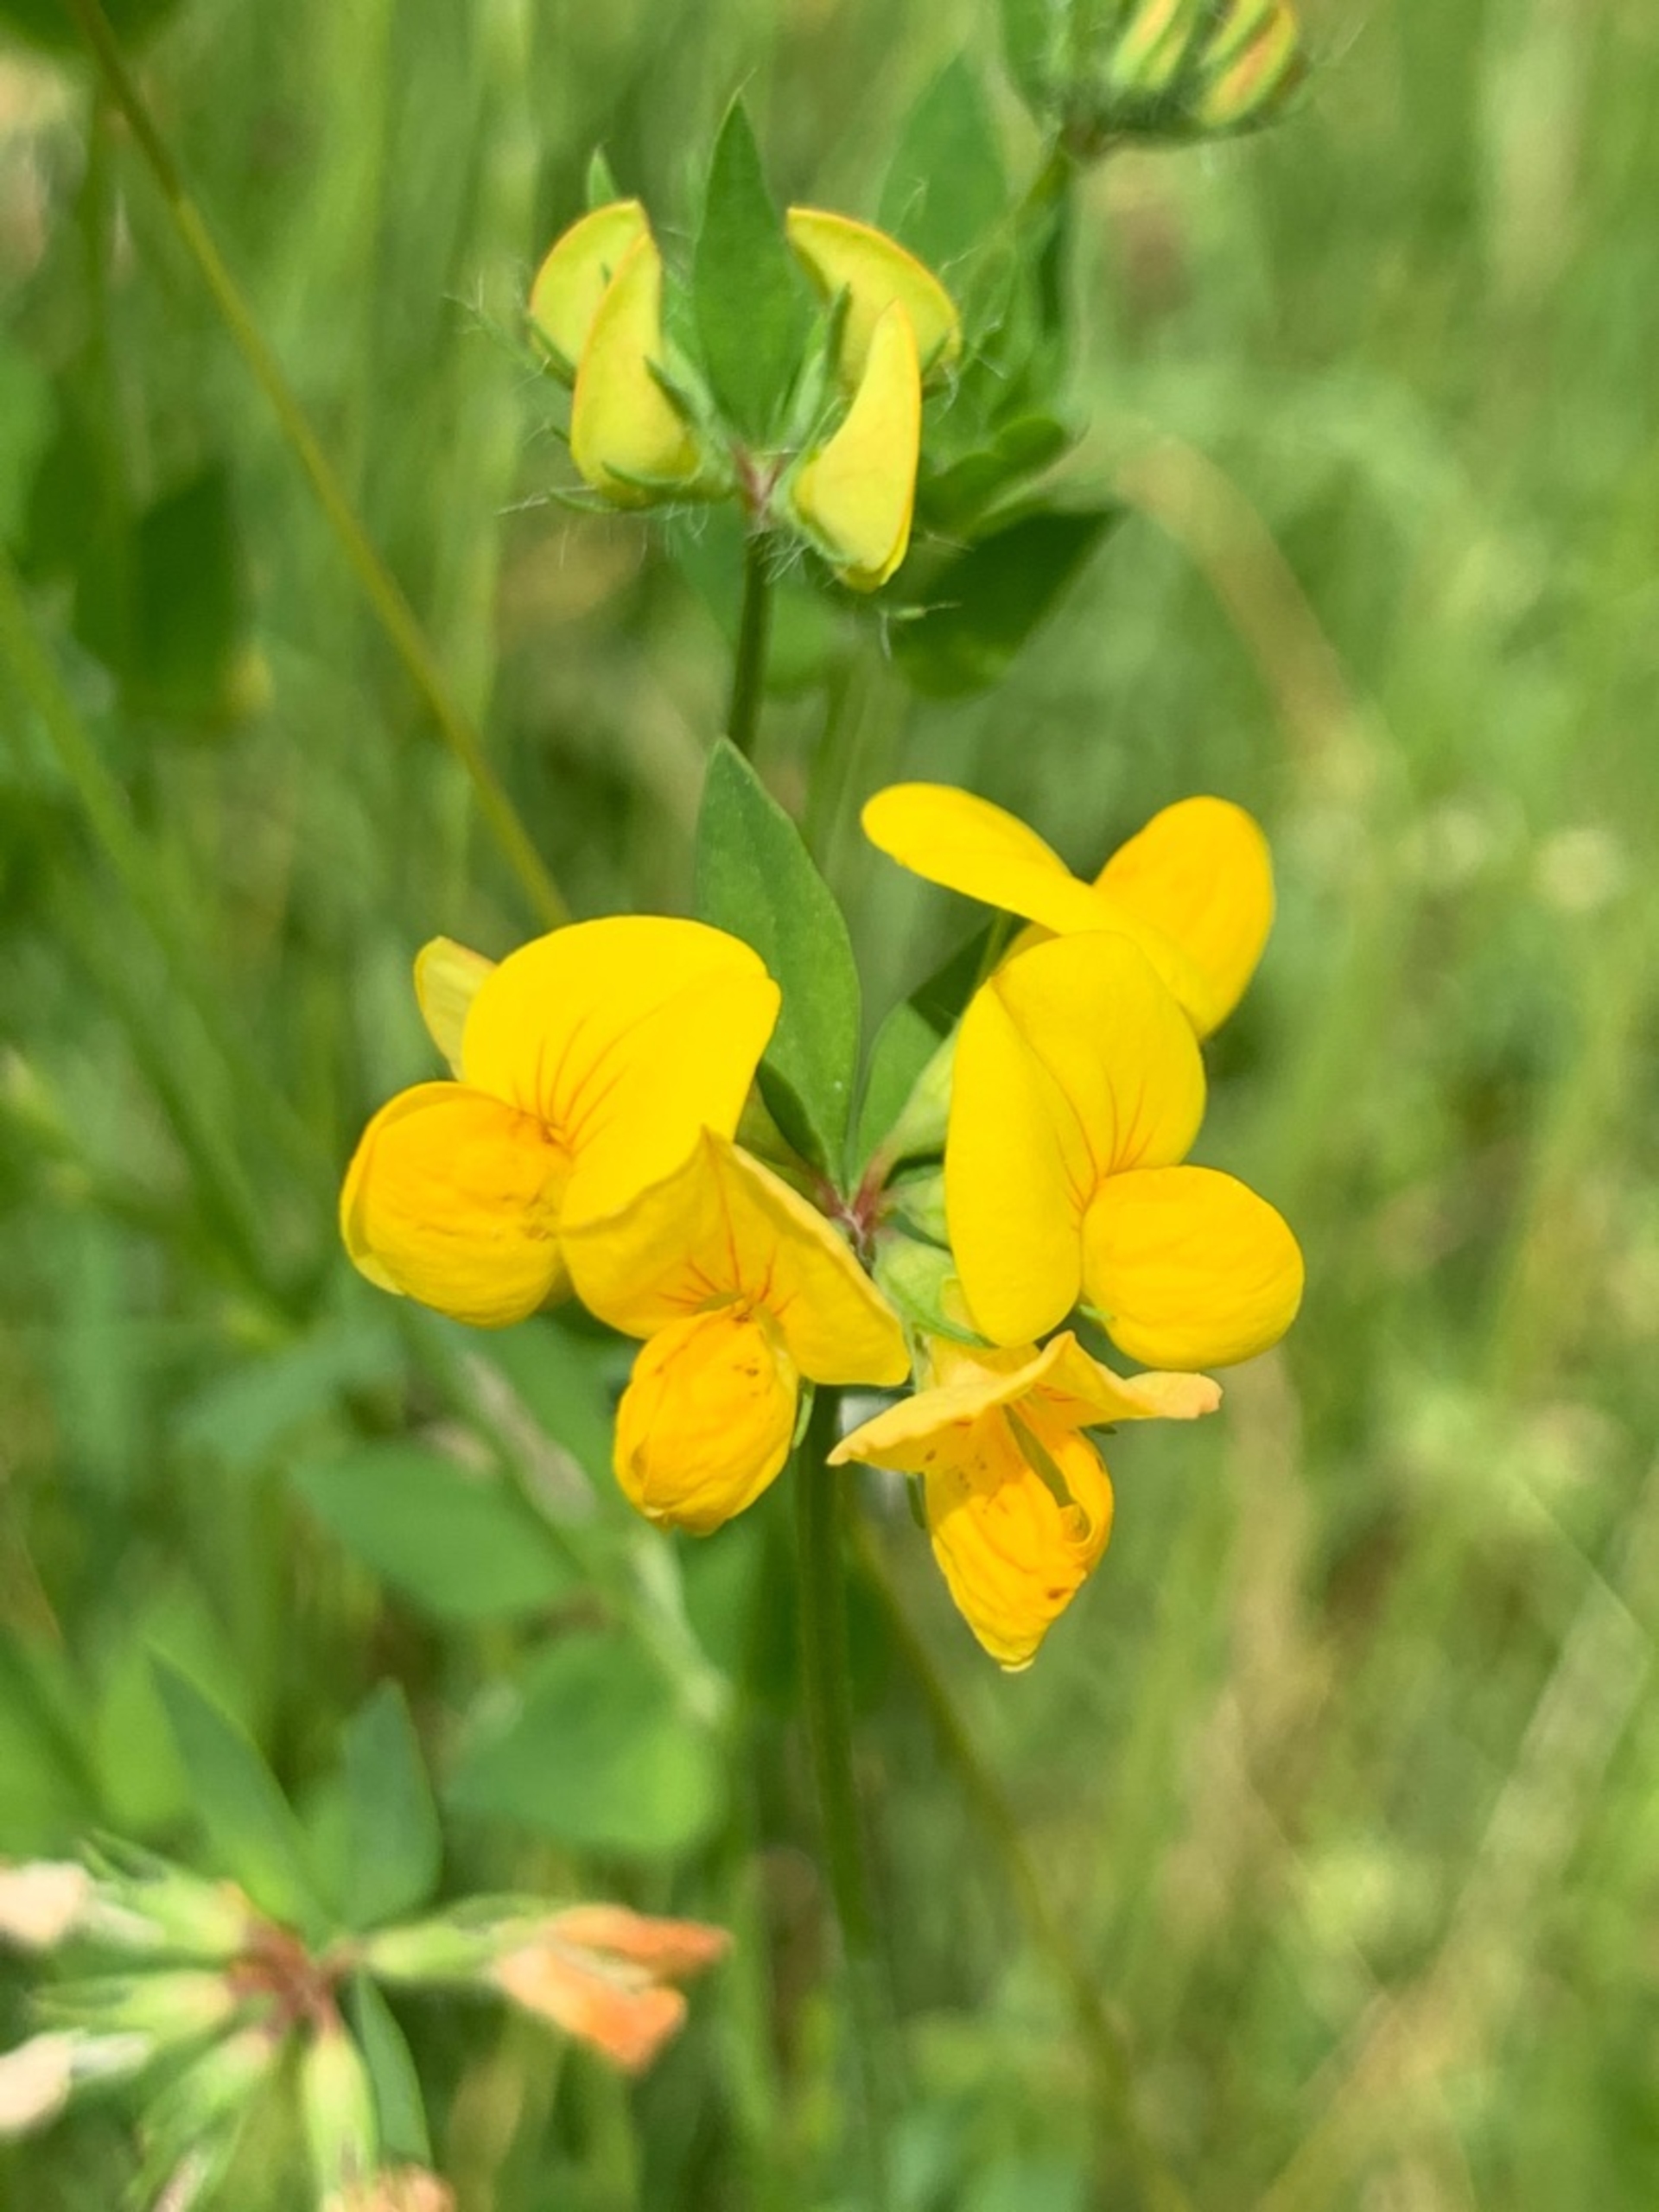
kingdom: Plantae
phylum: Tracheophyta
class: Magnoliopsida
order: Fabales
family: Fabaceae
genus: Lotus
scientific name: Lotus corniculatus
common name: Almindelig kællingetand
